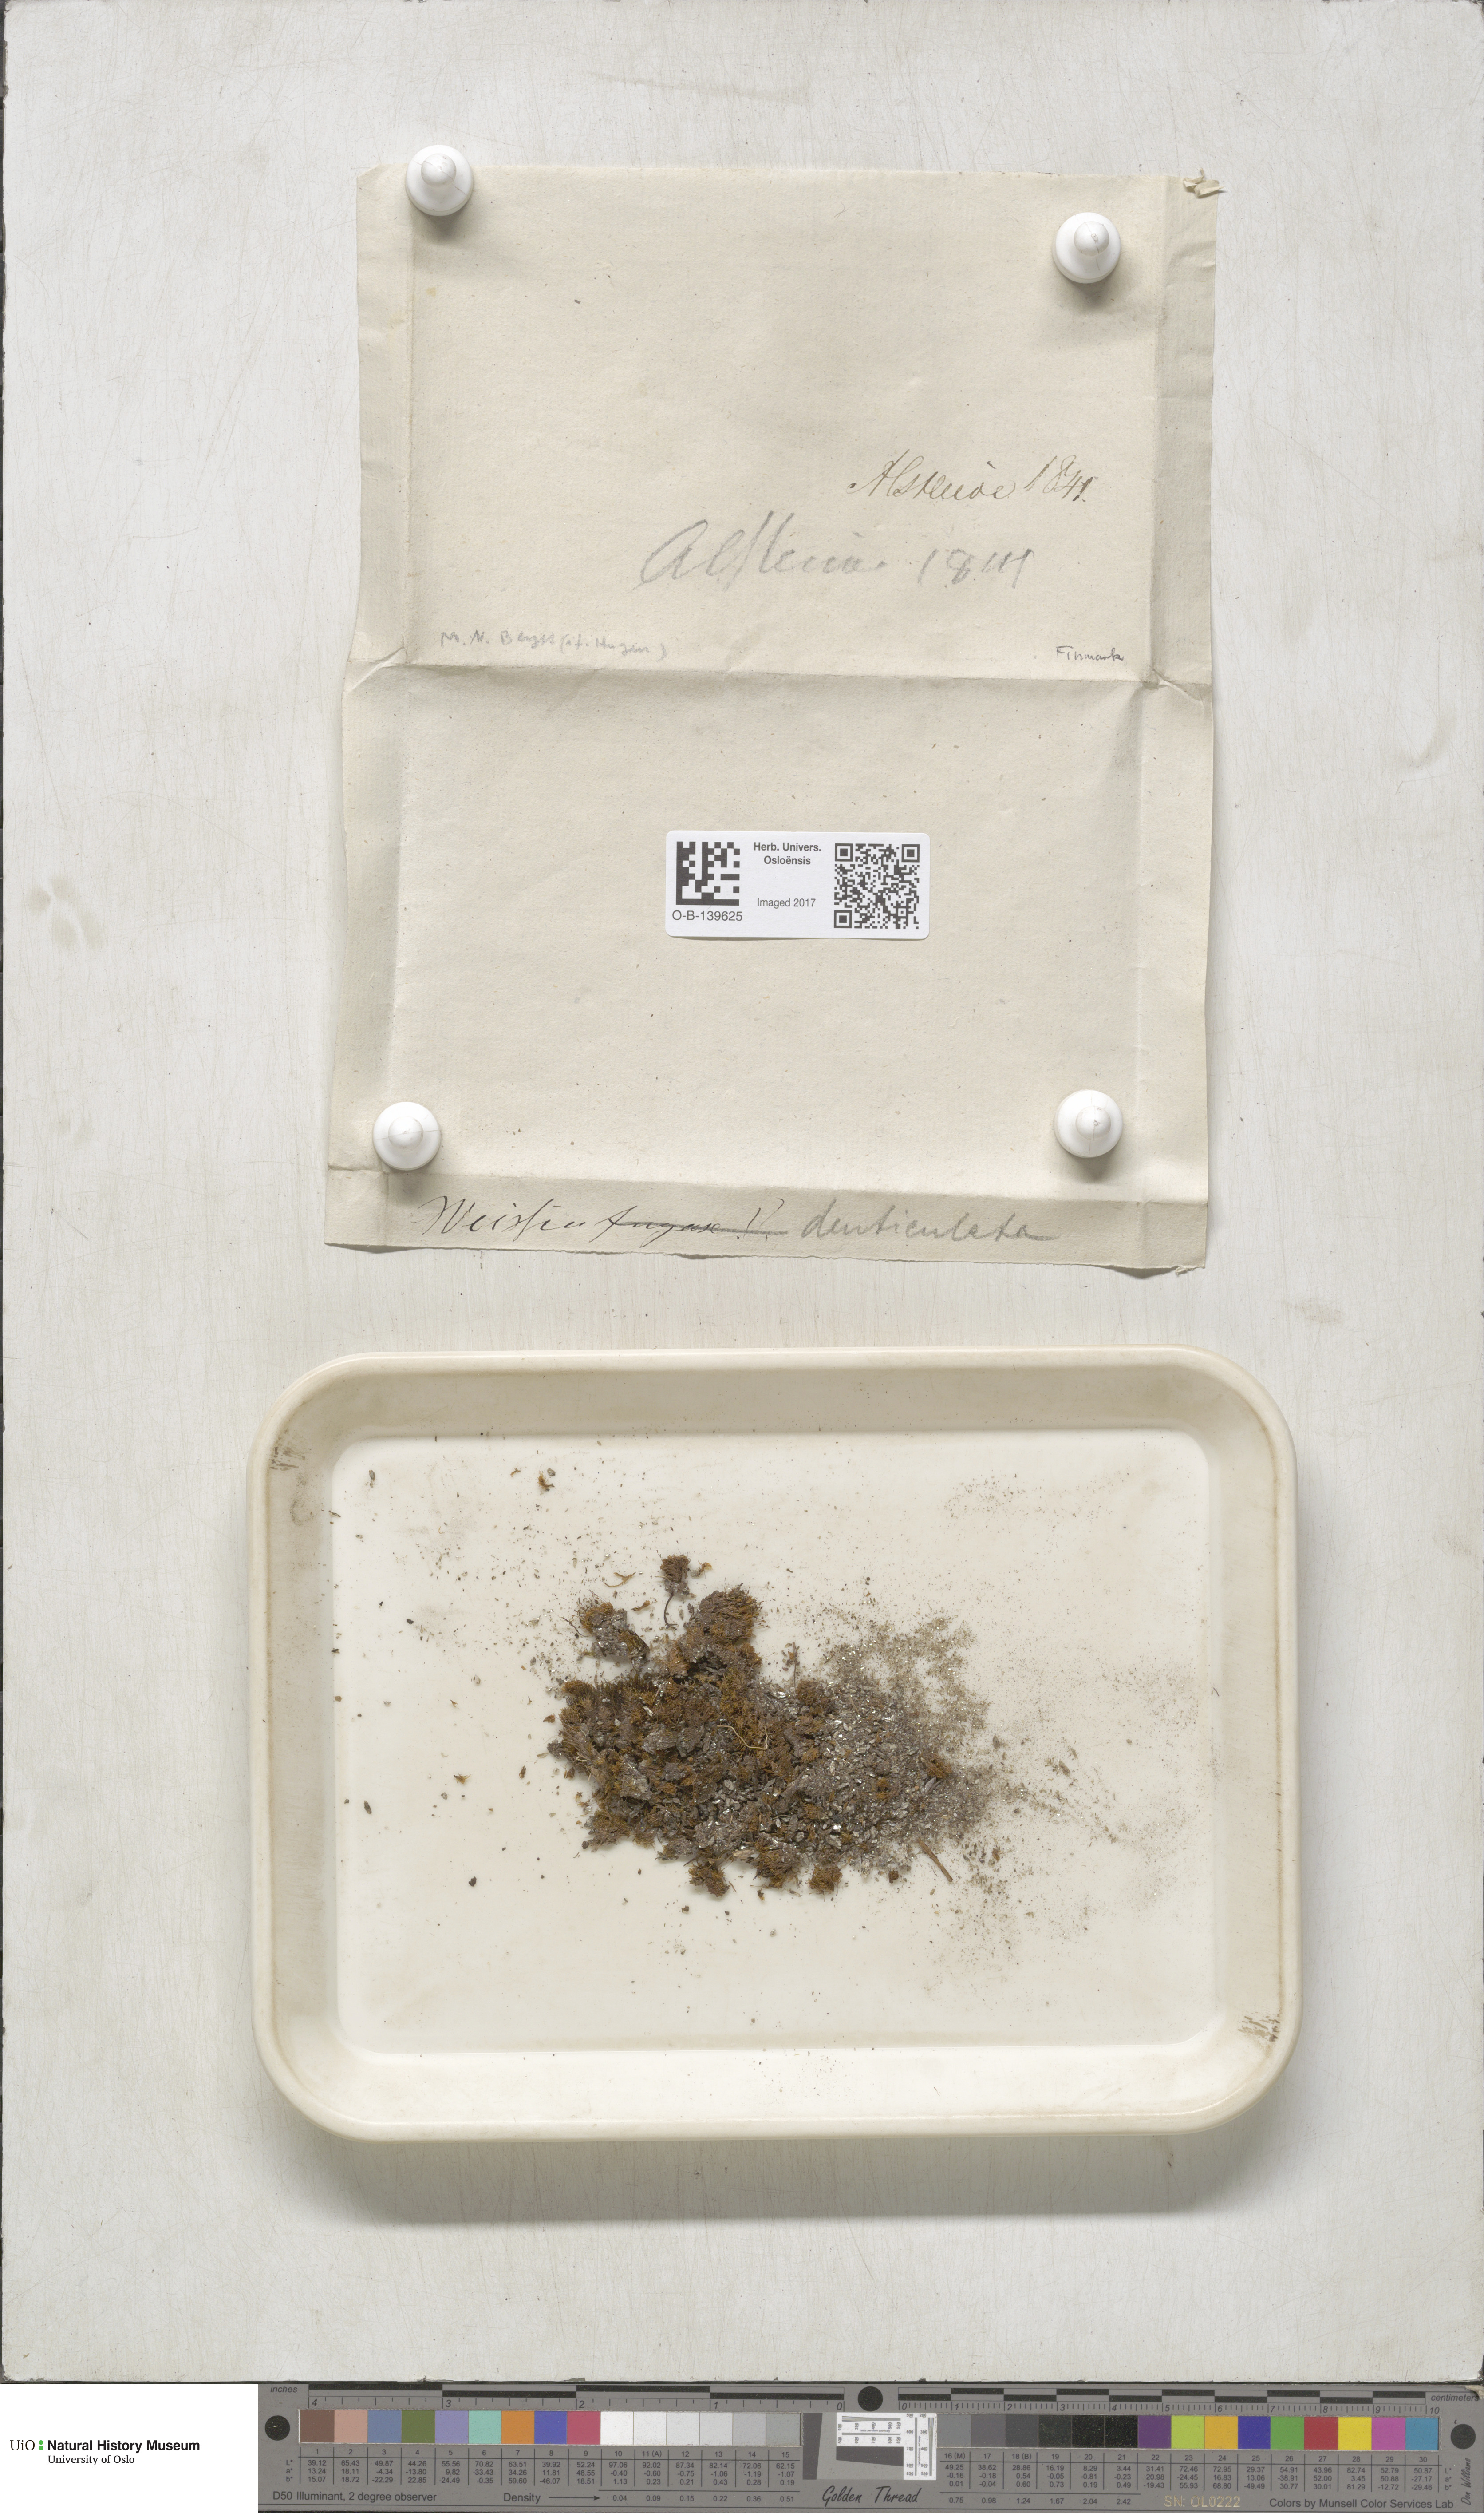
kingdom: Plantae
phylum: Bryophyta
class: Bryopsida
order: Dicranales
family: Rhabdoweisiaceae
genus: Rhabdoweisia
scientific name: Rhabdoweisia crispata
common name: Fine-toothed streak moss
